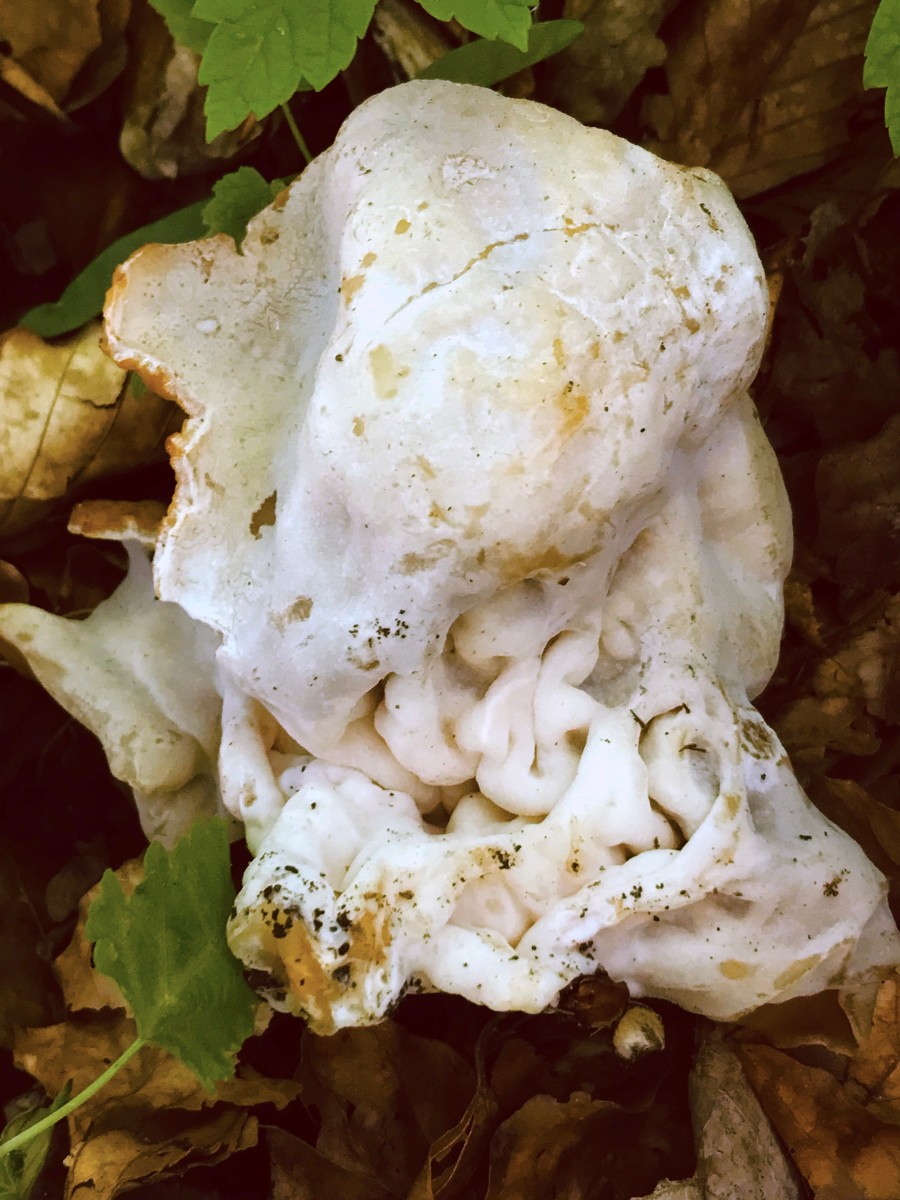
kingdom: Fungi
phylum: Ascomycota
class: Pezizomycetes
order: Pezizales
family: Morchellaceae
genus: Disciotis
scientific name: Disciotis venosa
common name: klor-bægermorkel
